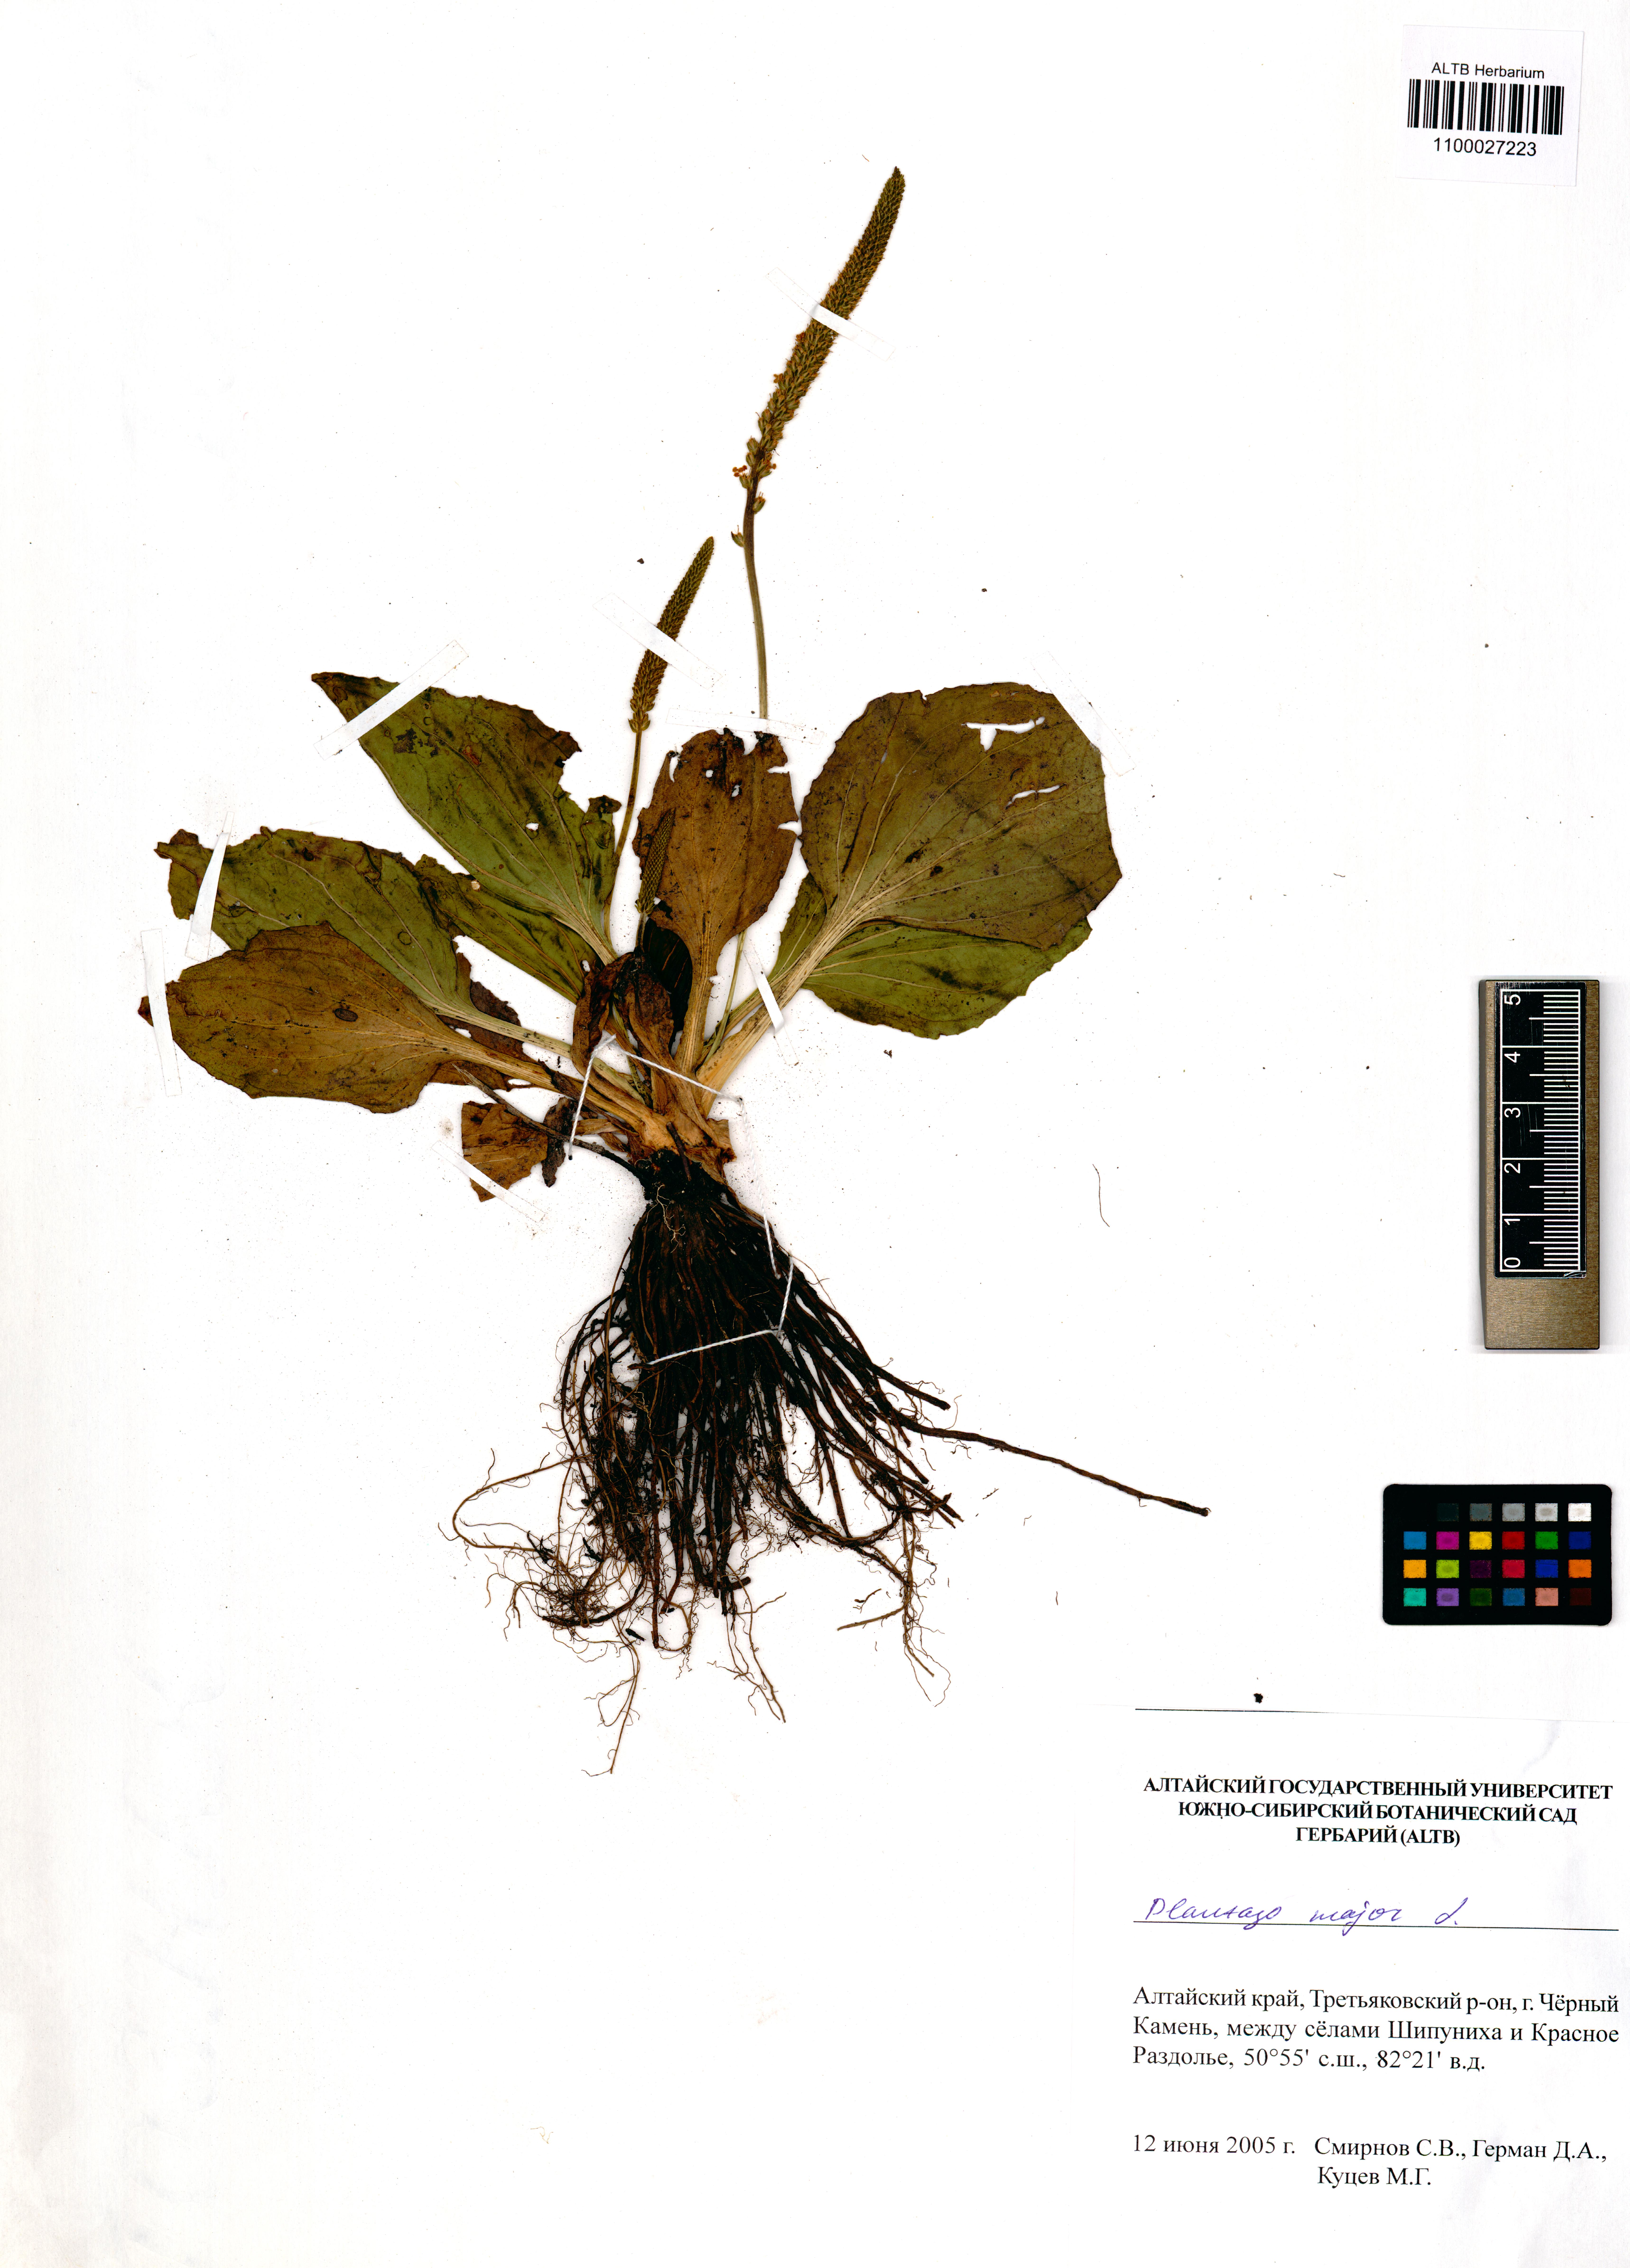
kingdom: Plantae
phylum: Tracheophyta
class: Magnoliopsida
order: Lamiales
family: Plantaginaceae
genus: Plantago
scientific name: Plantago major
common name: Common plantain
